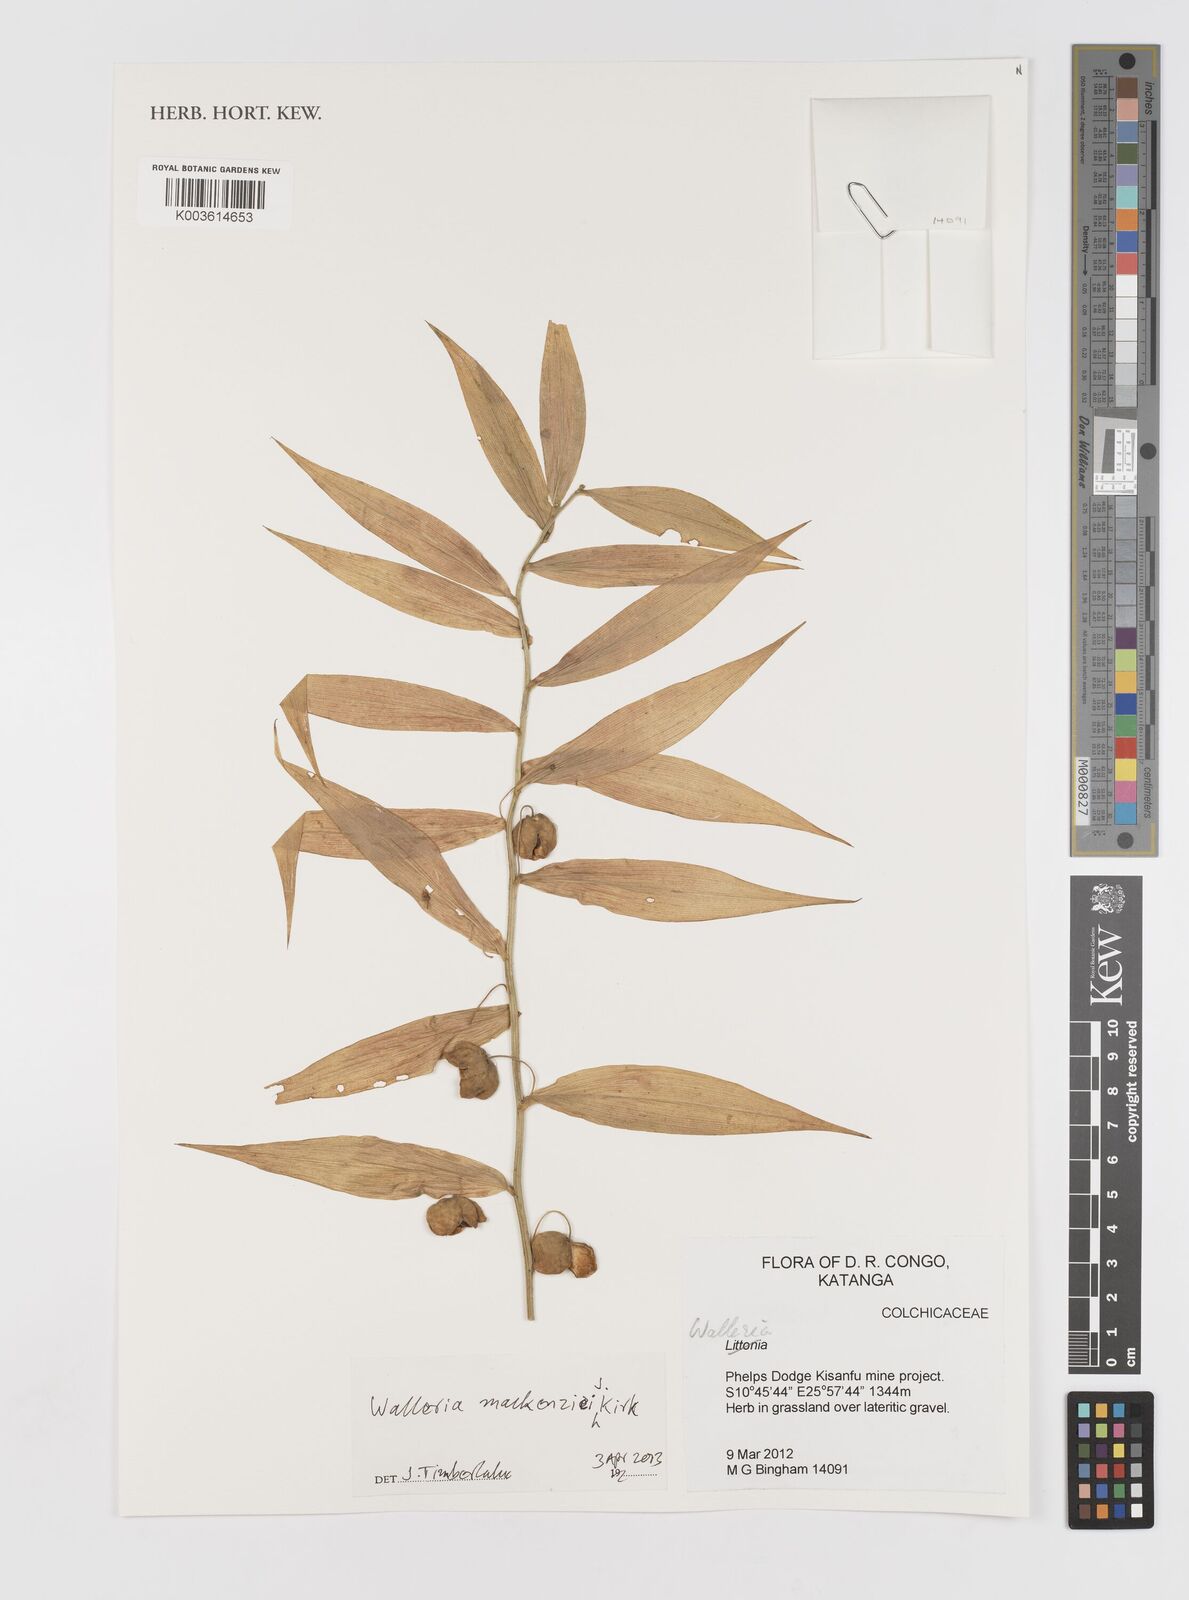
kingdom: Plantae
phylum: Tracheophyta
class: Liliopsida
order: Asparagales
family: Tecophilaeaceae
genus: Walleria
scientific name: Walleria mackenziei
